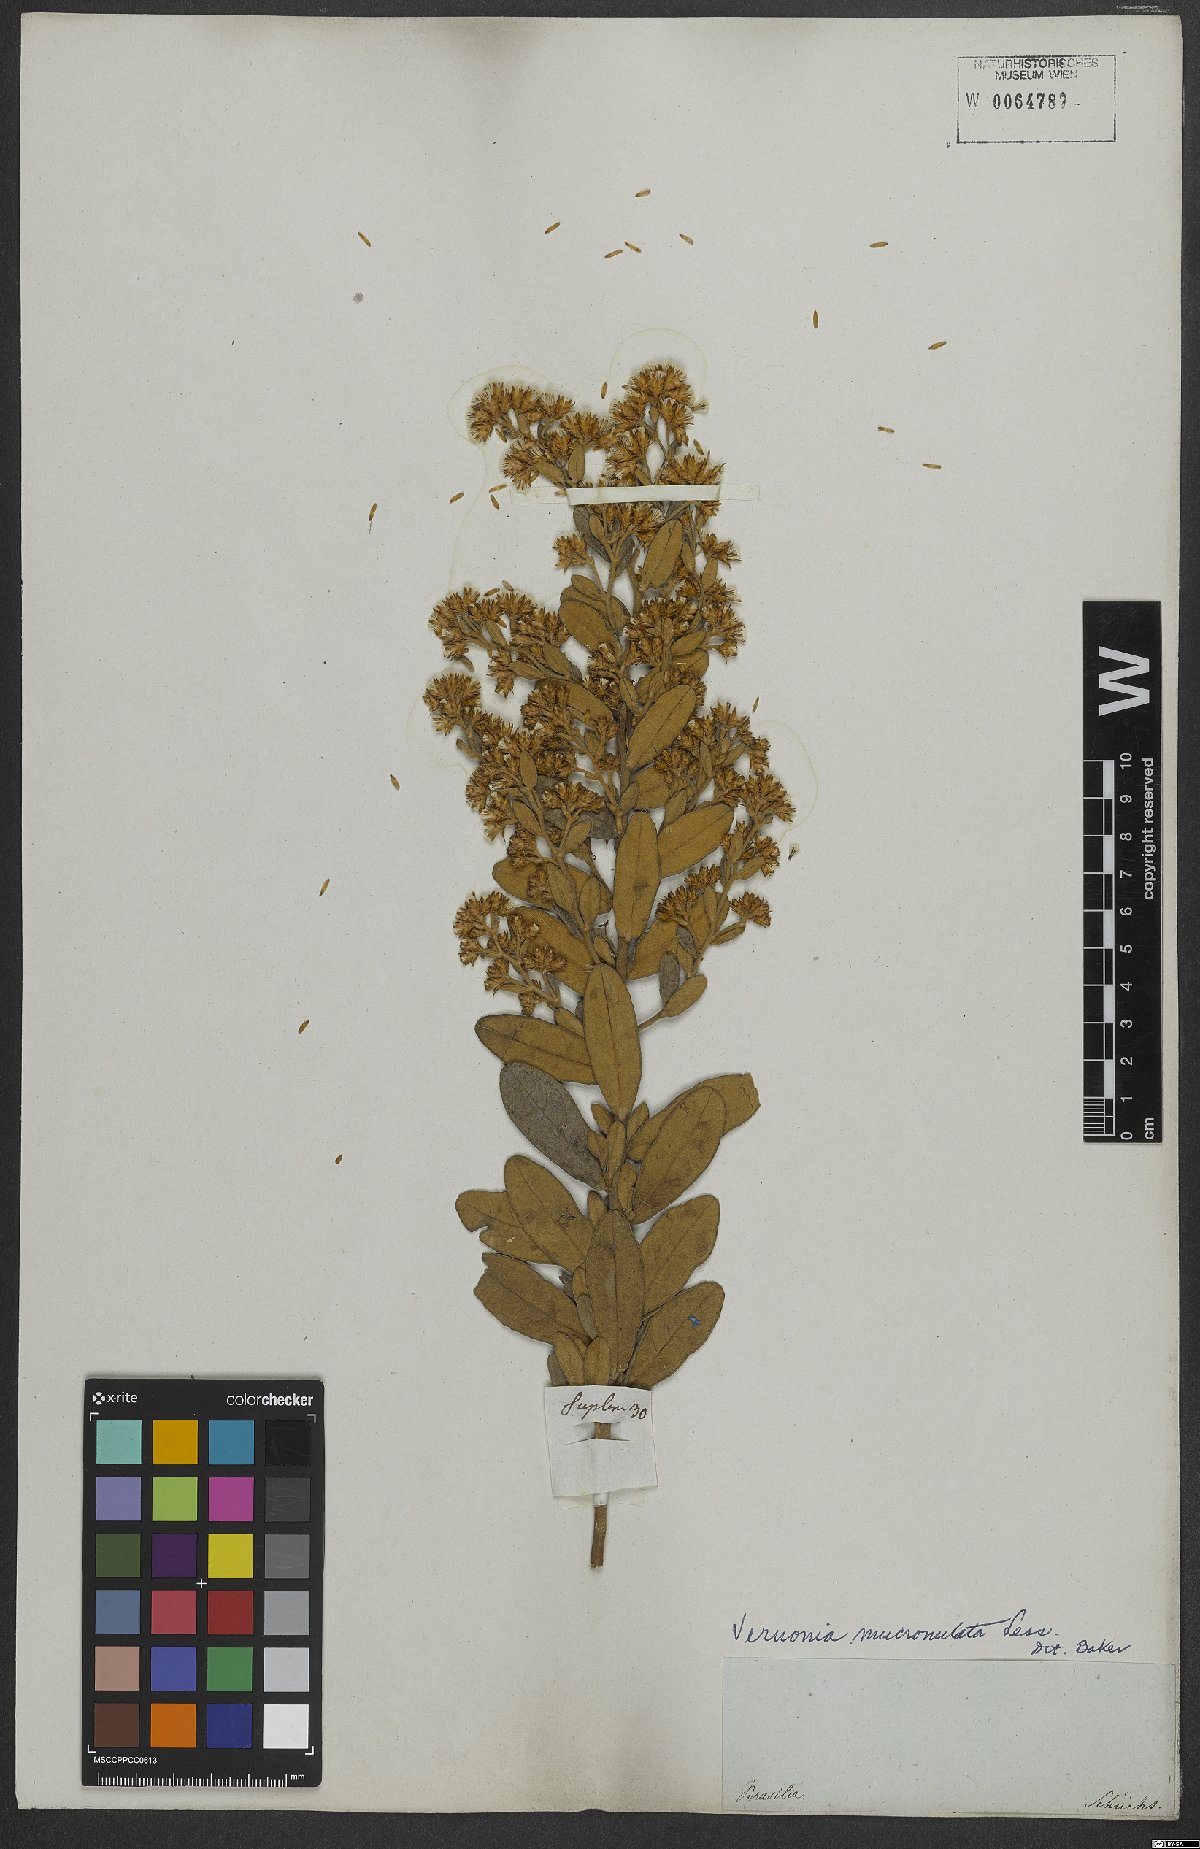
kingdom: Plantae
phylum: Tracheophyta
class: Magnoliopsida
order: Asterales
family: Asteraceae
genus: Vernonanthura
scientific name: Vernonanthura mucronulata
